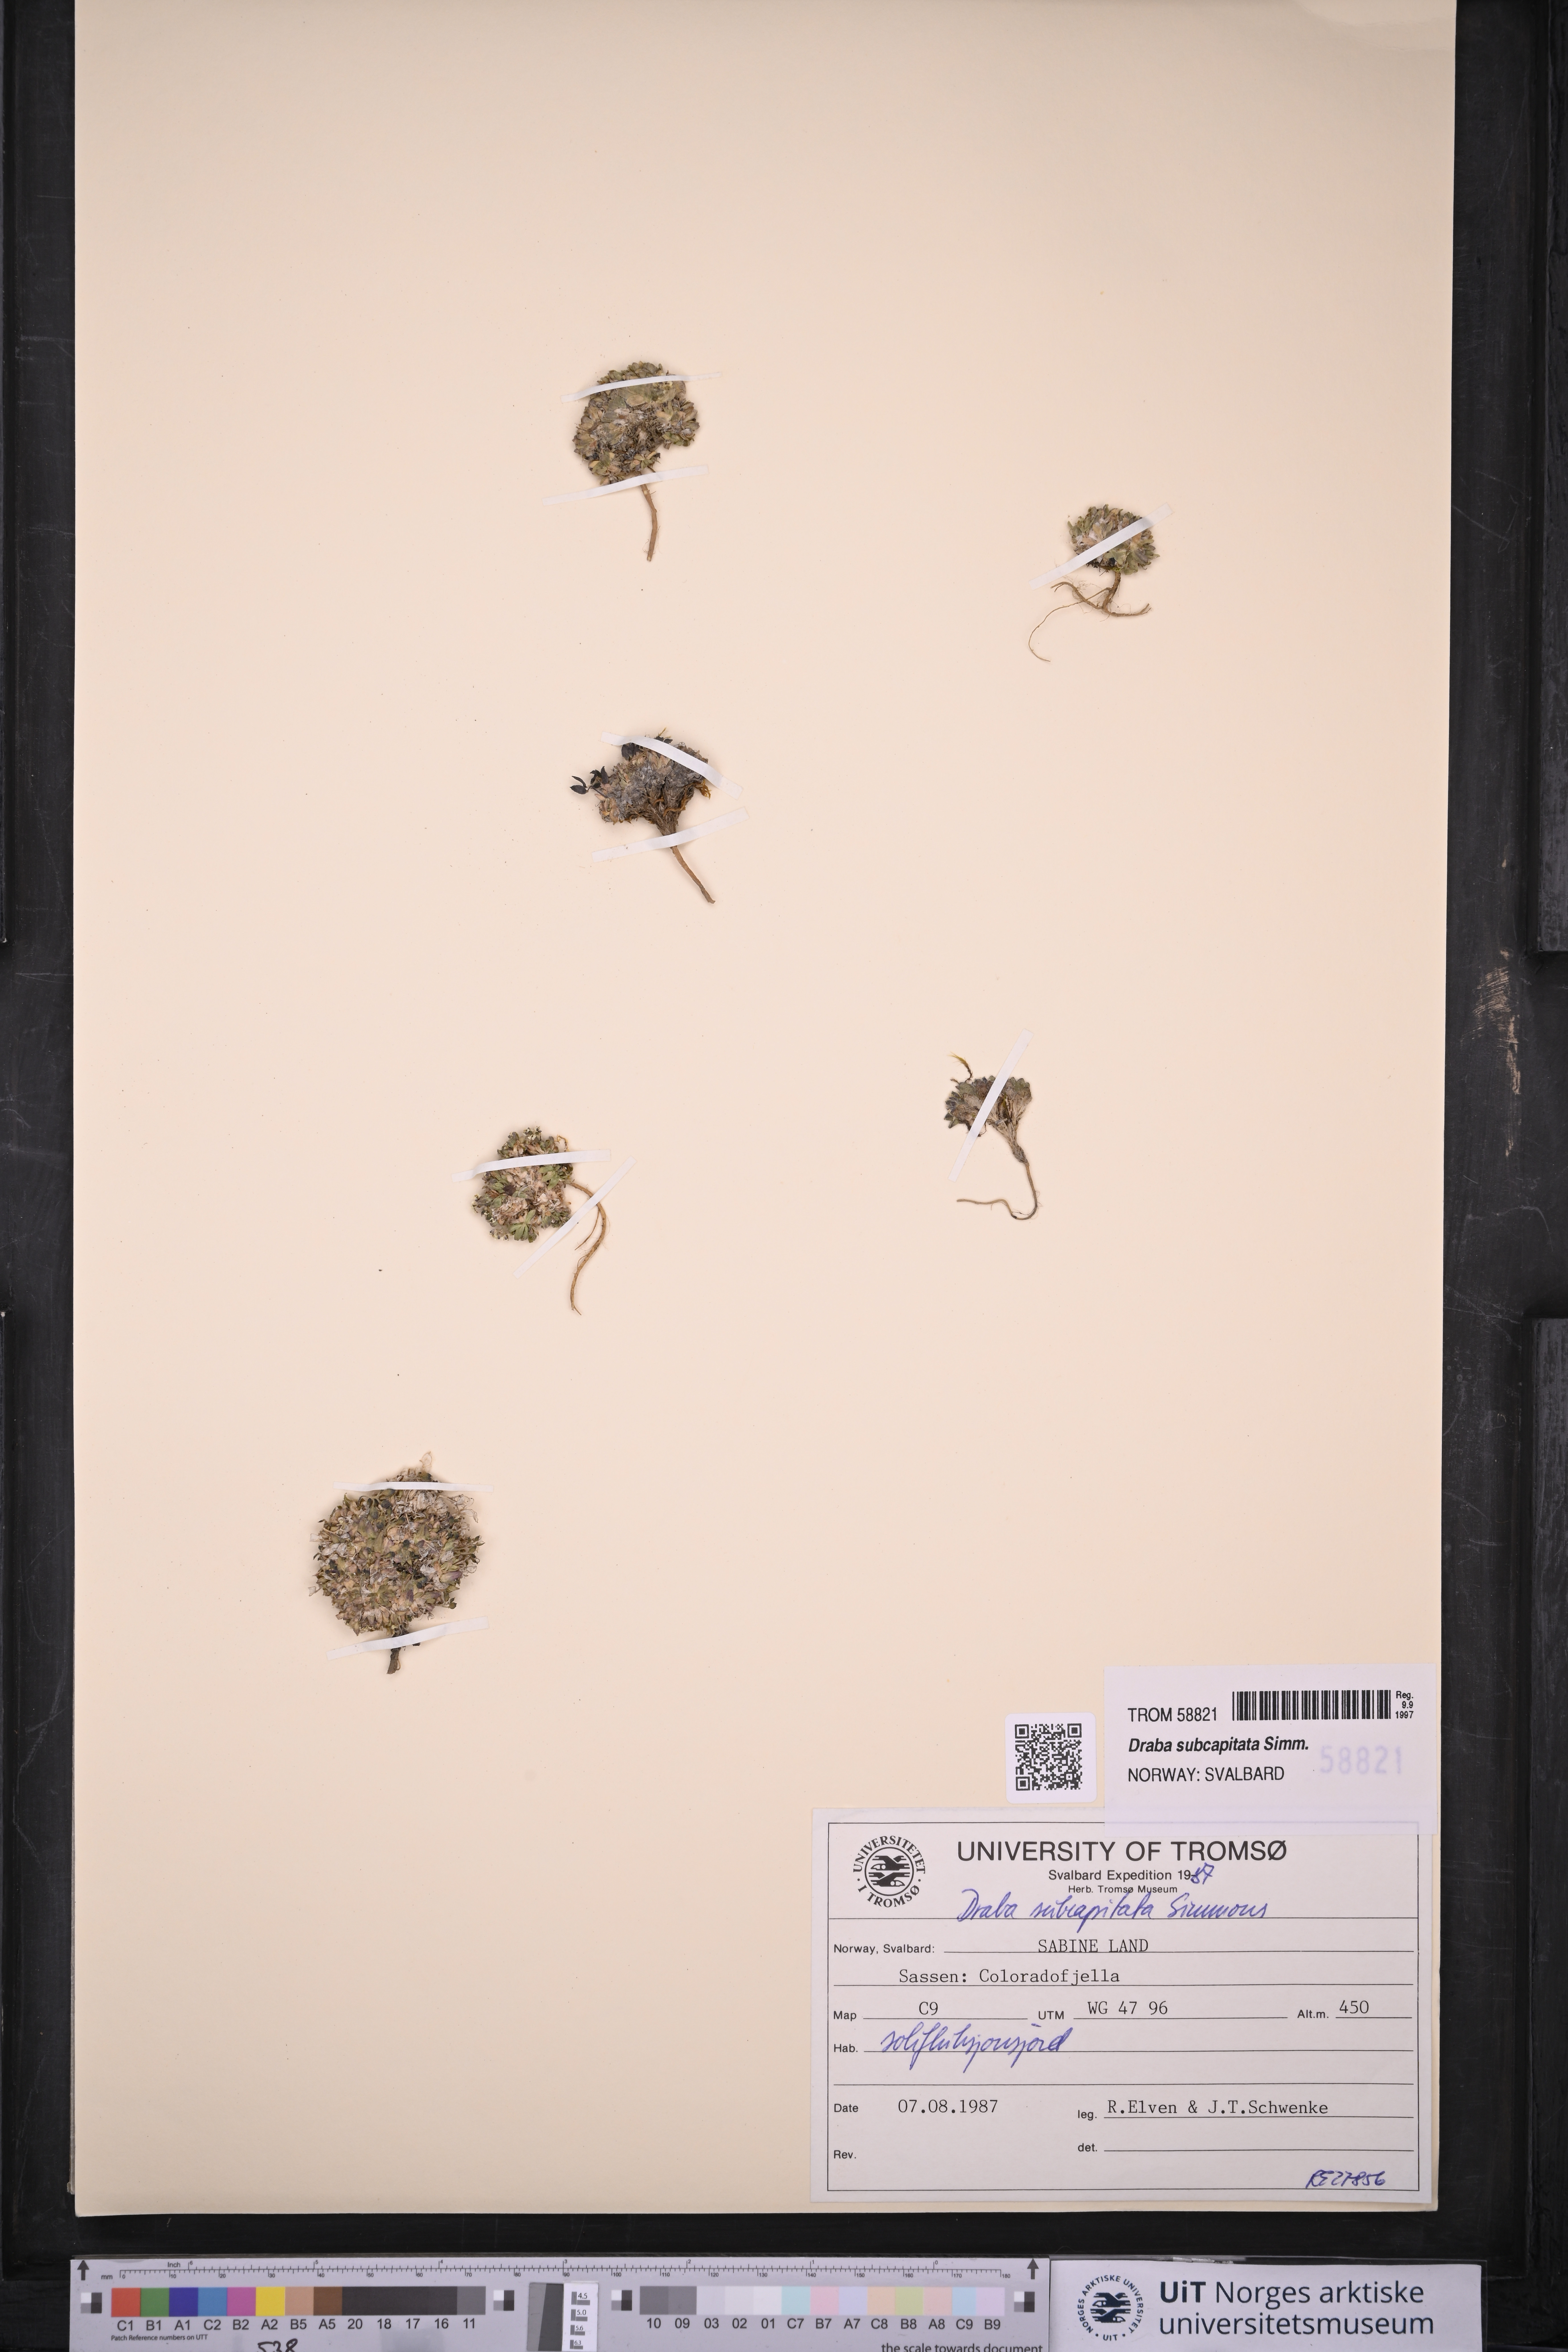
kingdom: Plantae
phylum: Tracheophyta
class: Magnoliopsida
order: Brassicales
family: Brassicaceae
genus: Draba
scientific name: Draba subcapitata
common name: Ellesmere island draba
